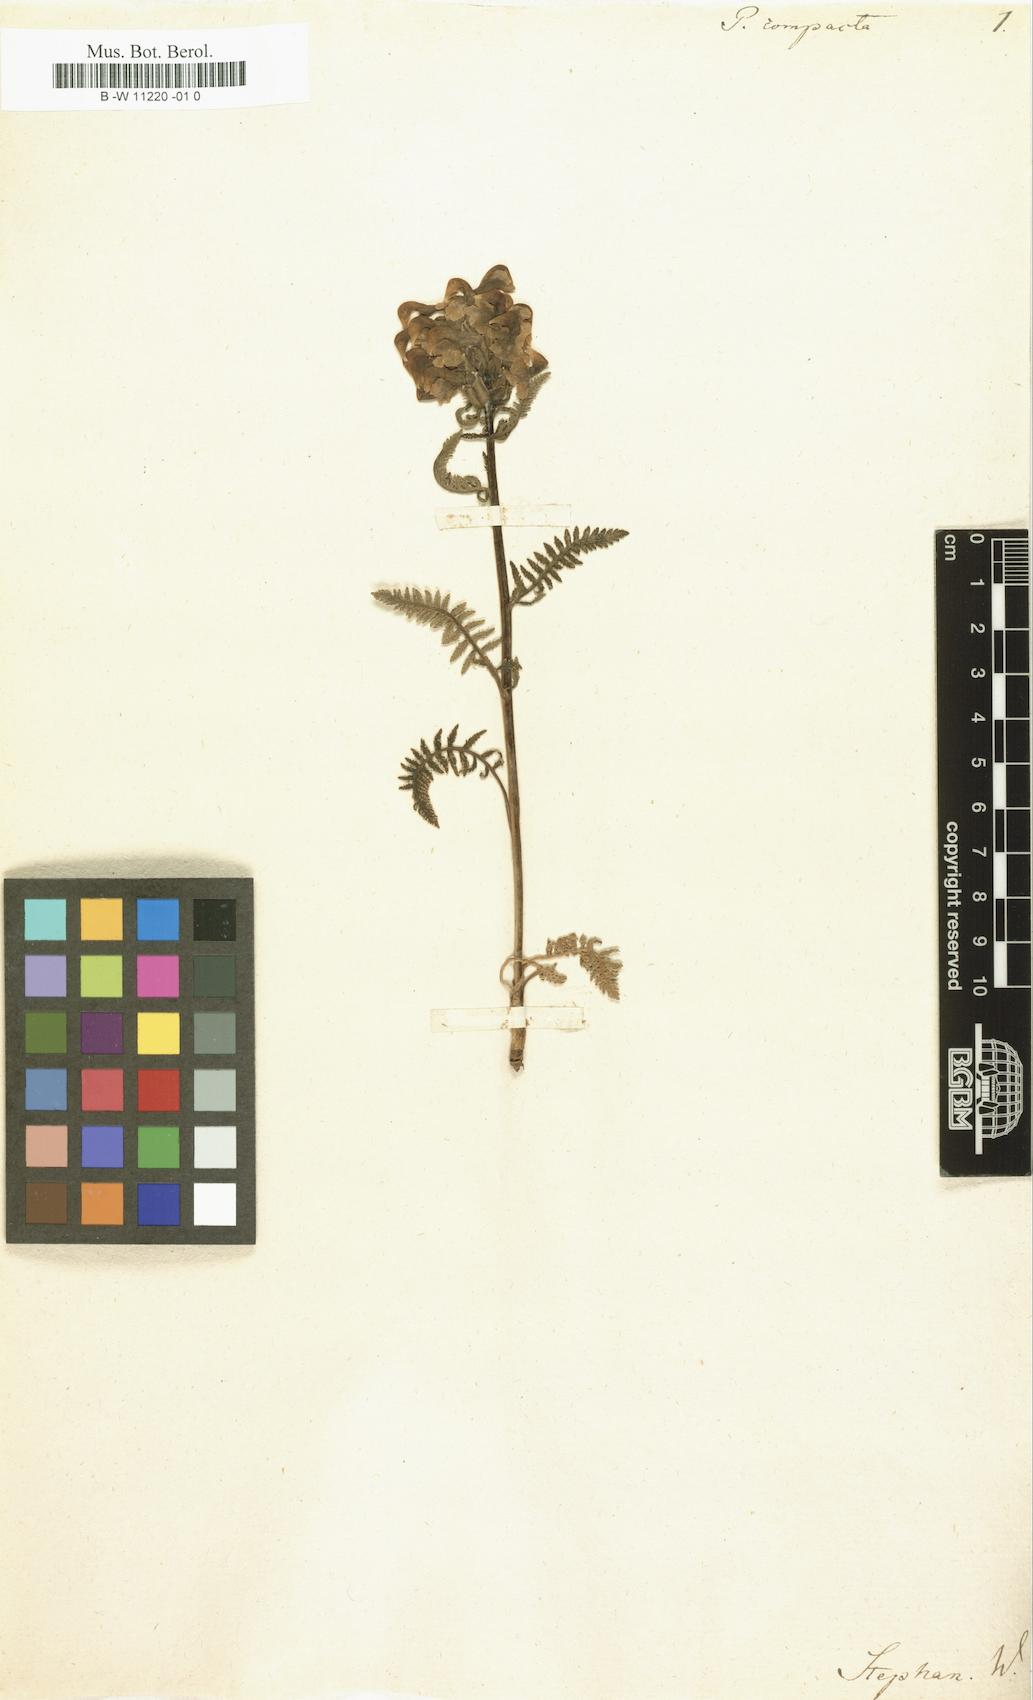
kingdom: Plantae
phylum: Tracheophyta
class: Magnoliopsida
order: Lamiales
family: Orobanchaceae
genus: Pedicularis
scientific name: Pedicularis compacta
